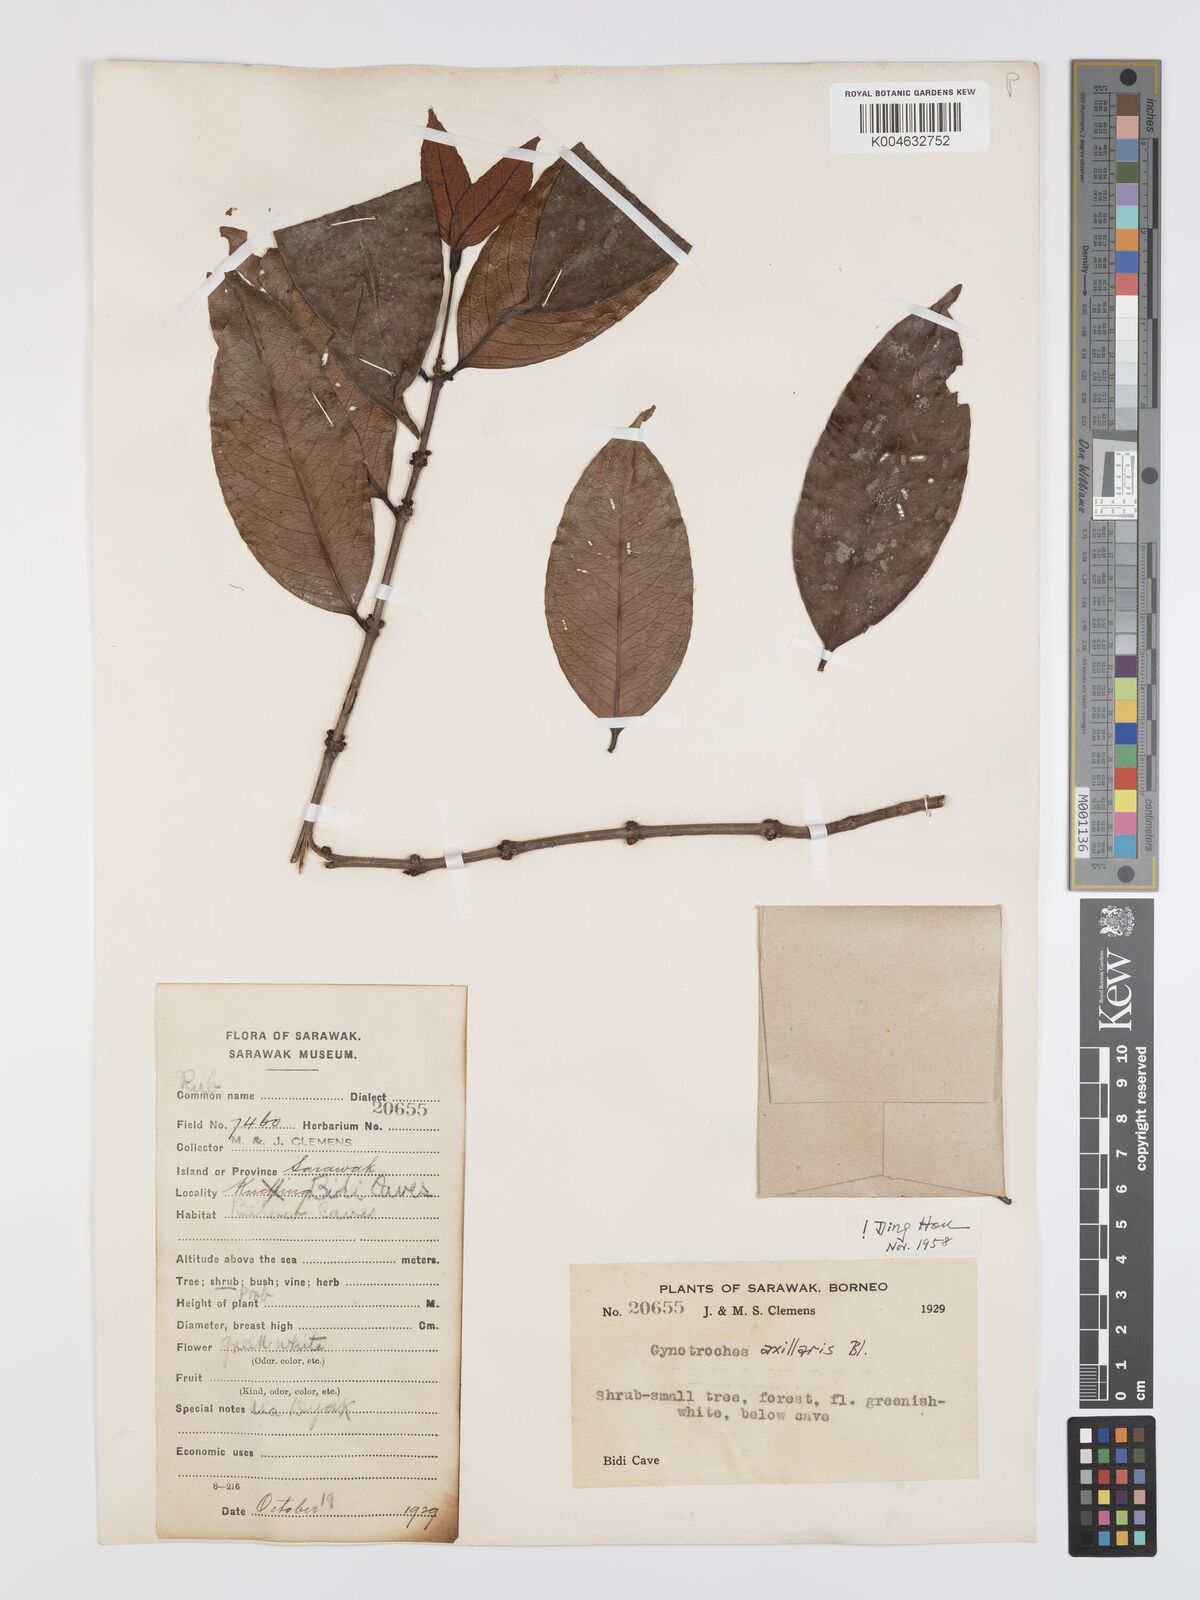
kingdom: Plantae
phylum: Tracheophyta
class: Magnoliopsida
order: Malpighiales
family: Rhizophoraceae
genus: Gynotroches
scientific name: Gynotroches axillaris
